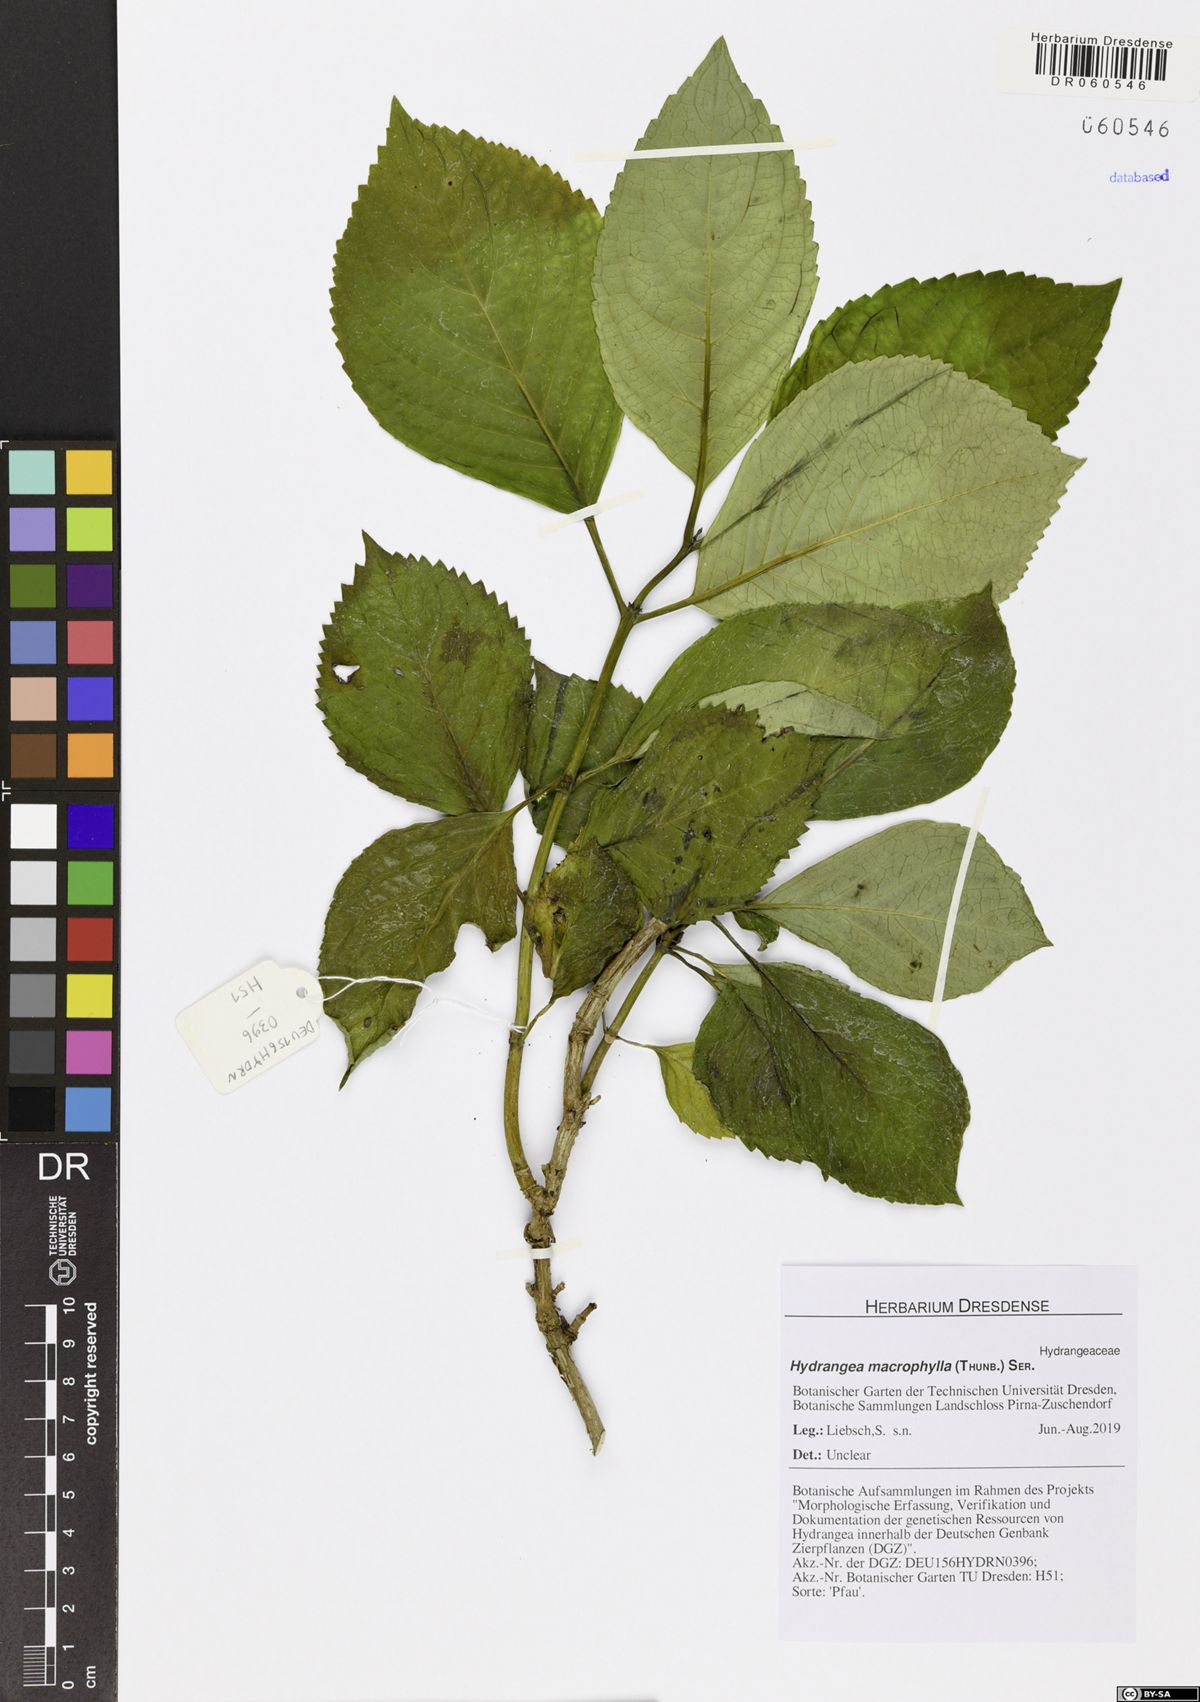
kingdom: Plantae
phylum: Tracheophyta
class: Magnoliopsida
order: Cornales
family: Hydrangeaceae
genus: Hydrangea
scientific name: Hydrangea macrophylla
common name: Hydrangea
